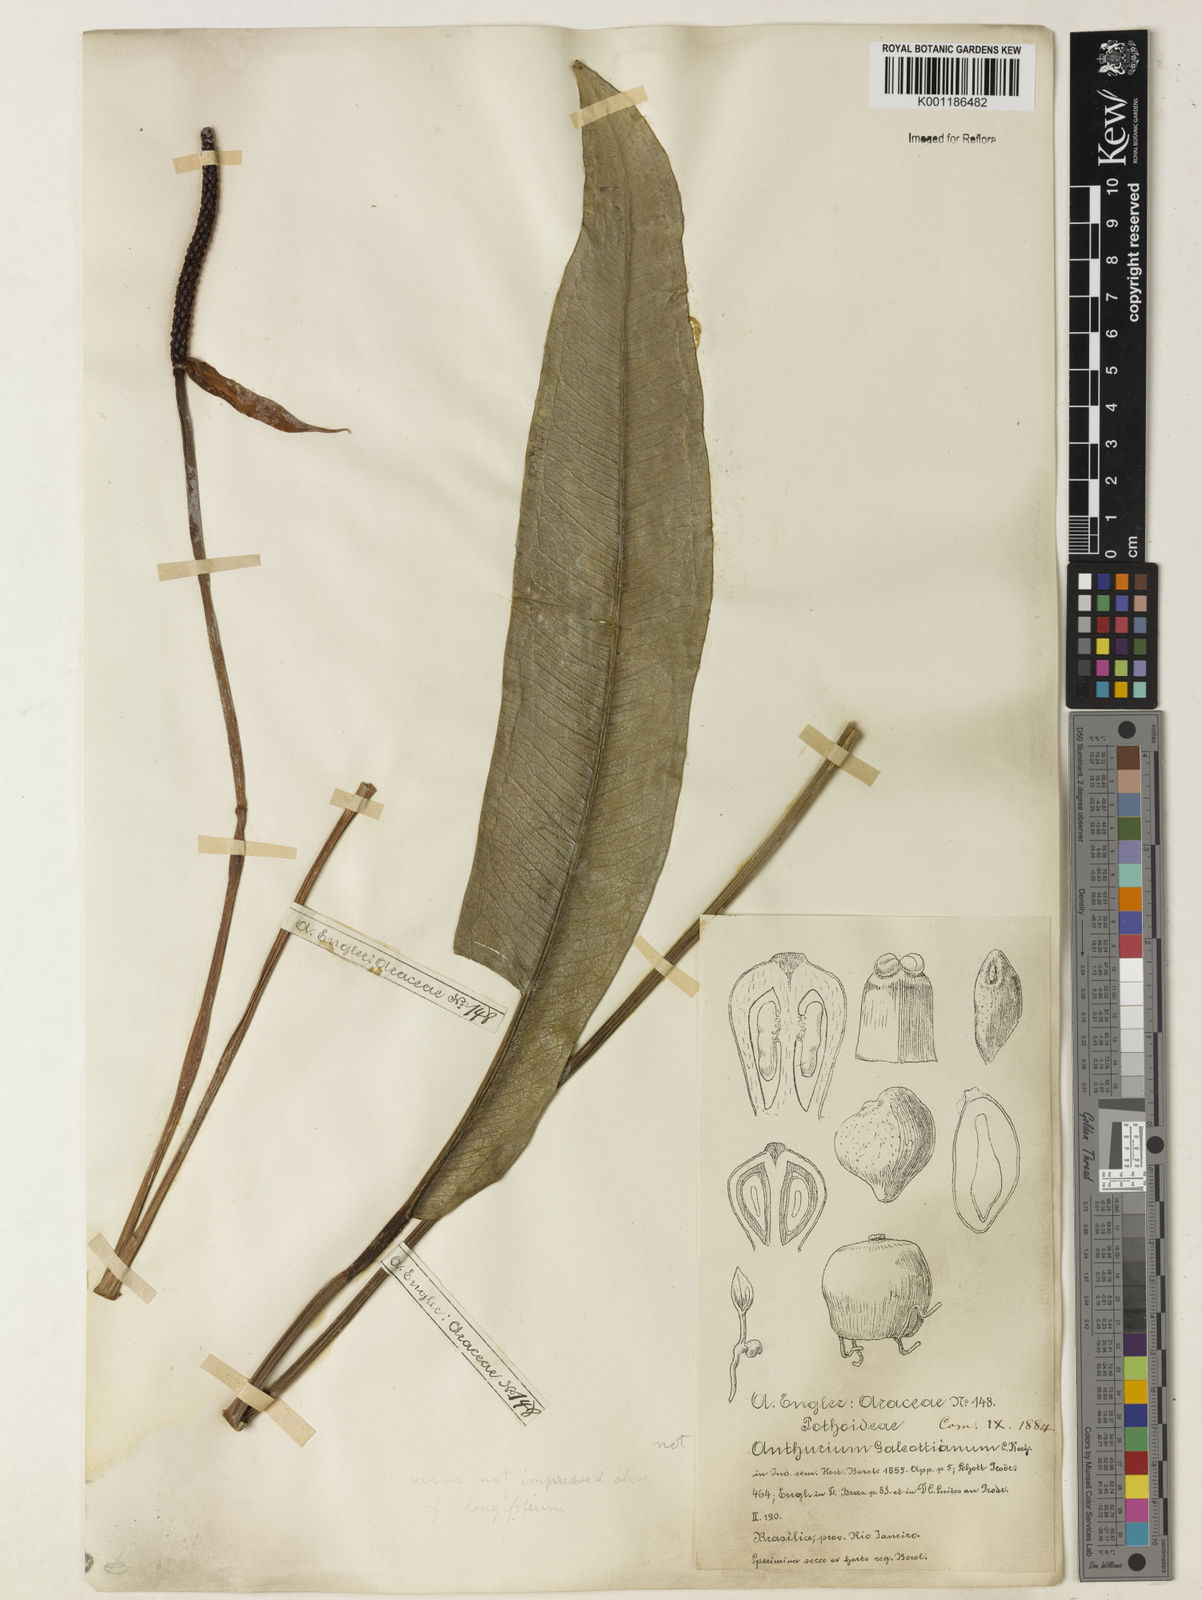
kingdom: Plantae
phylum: Tracheophyta
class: Liliopsida
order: Alismatales
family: Araceae
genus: Anthurium
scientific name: Anthurium galeottii
